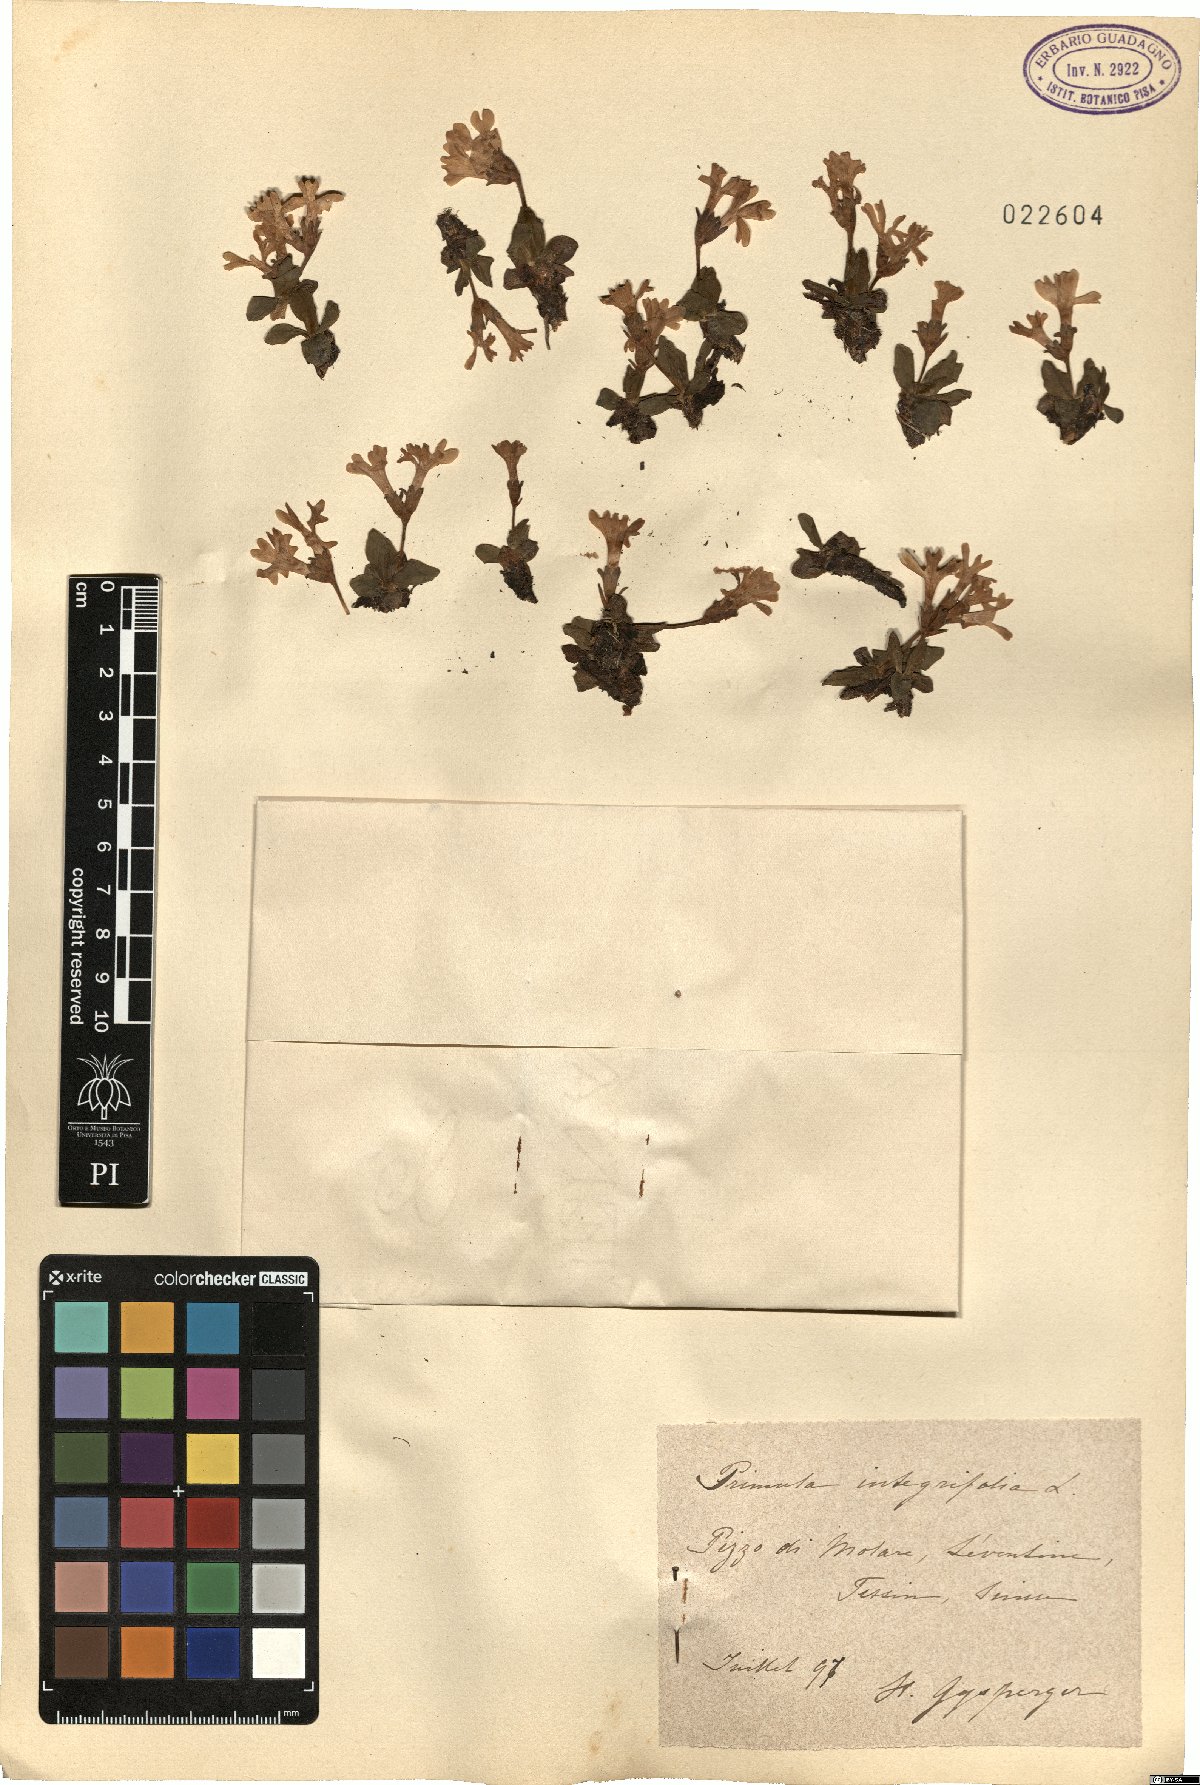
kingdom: Plantae
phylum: Tracheophyta
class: Magnoliopsida
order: Ericales
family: Primulaceae
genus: Primula
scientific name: Primula integrifolia
